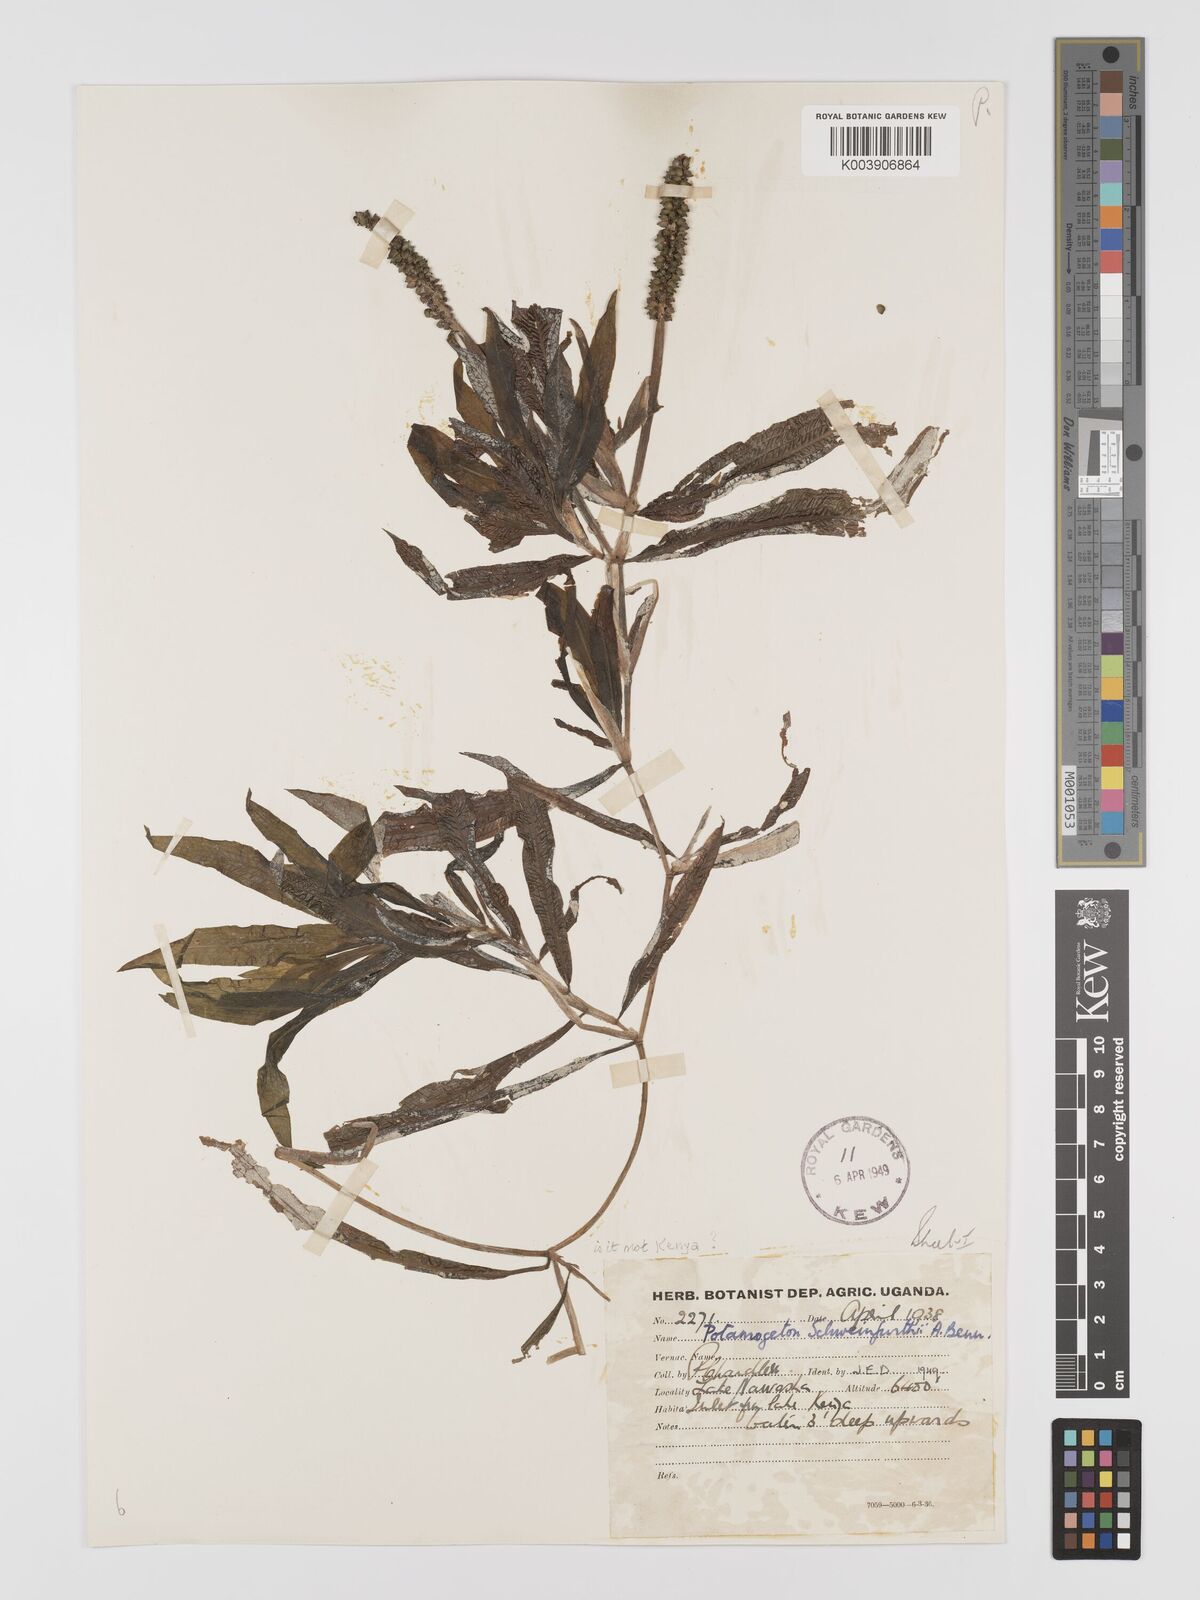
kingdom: Plantae
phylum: Tracheophyta
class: Liliopsida
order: Alismatales
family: Potamogetonaceae
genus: Potamogeton
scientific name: Potamogeton schweinfurthii
